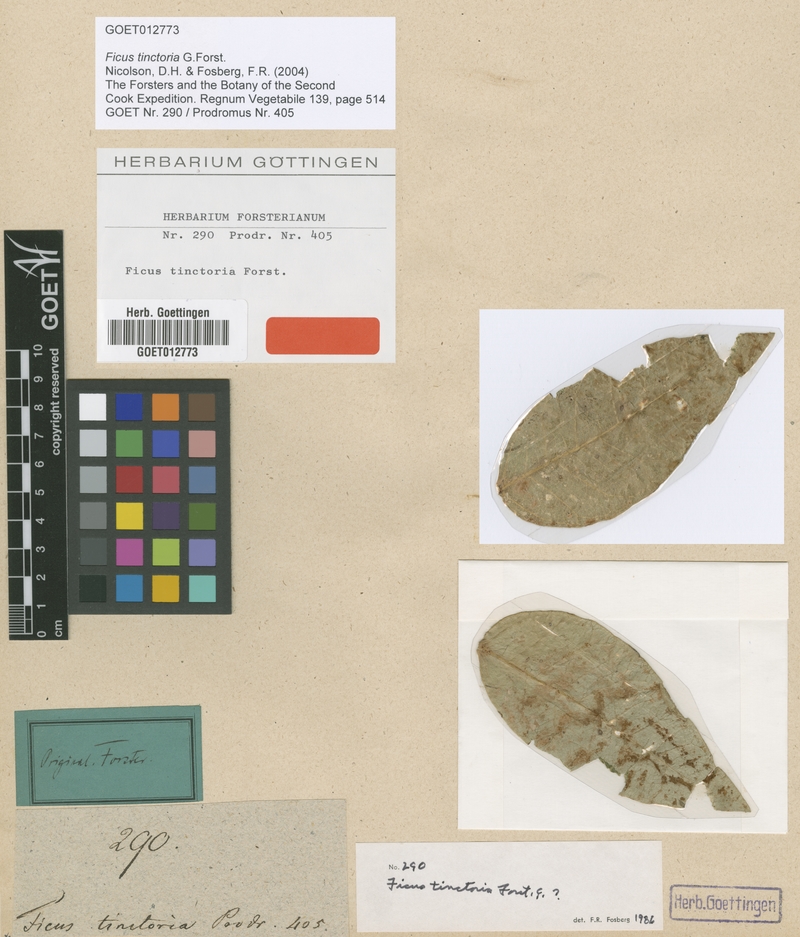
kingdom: Plantae
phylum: Tracheophyta
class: Magnoliopsida
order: Rosales
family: Moraceae
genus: Ficus
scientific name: Ficus tinctoria
